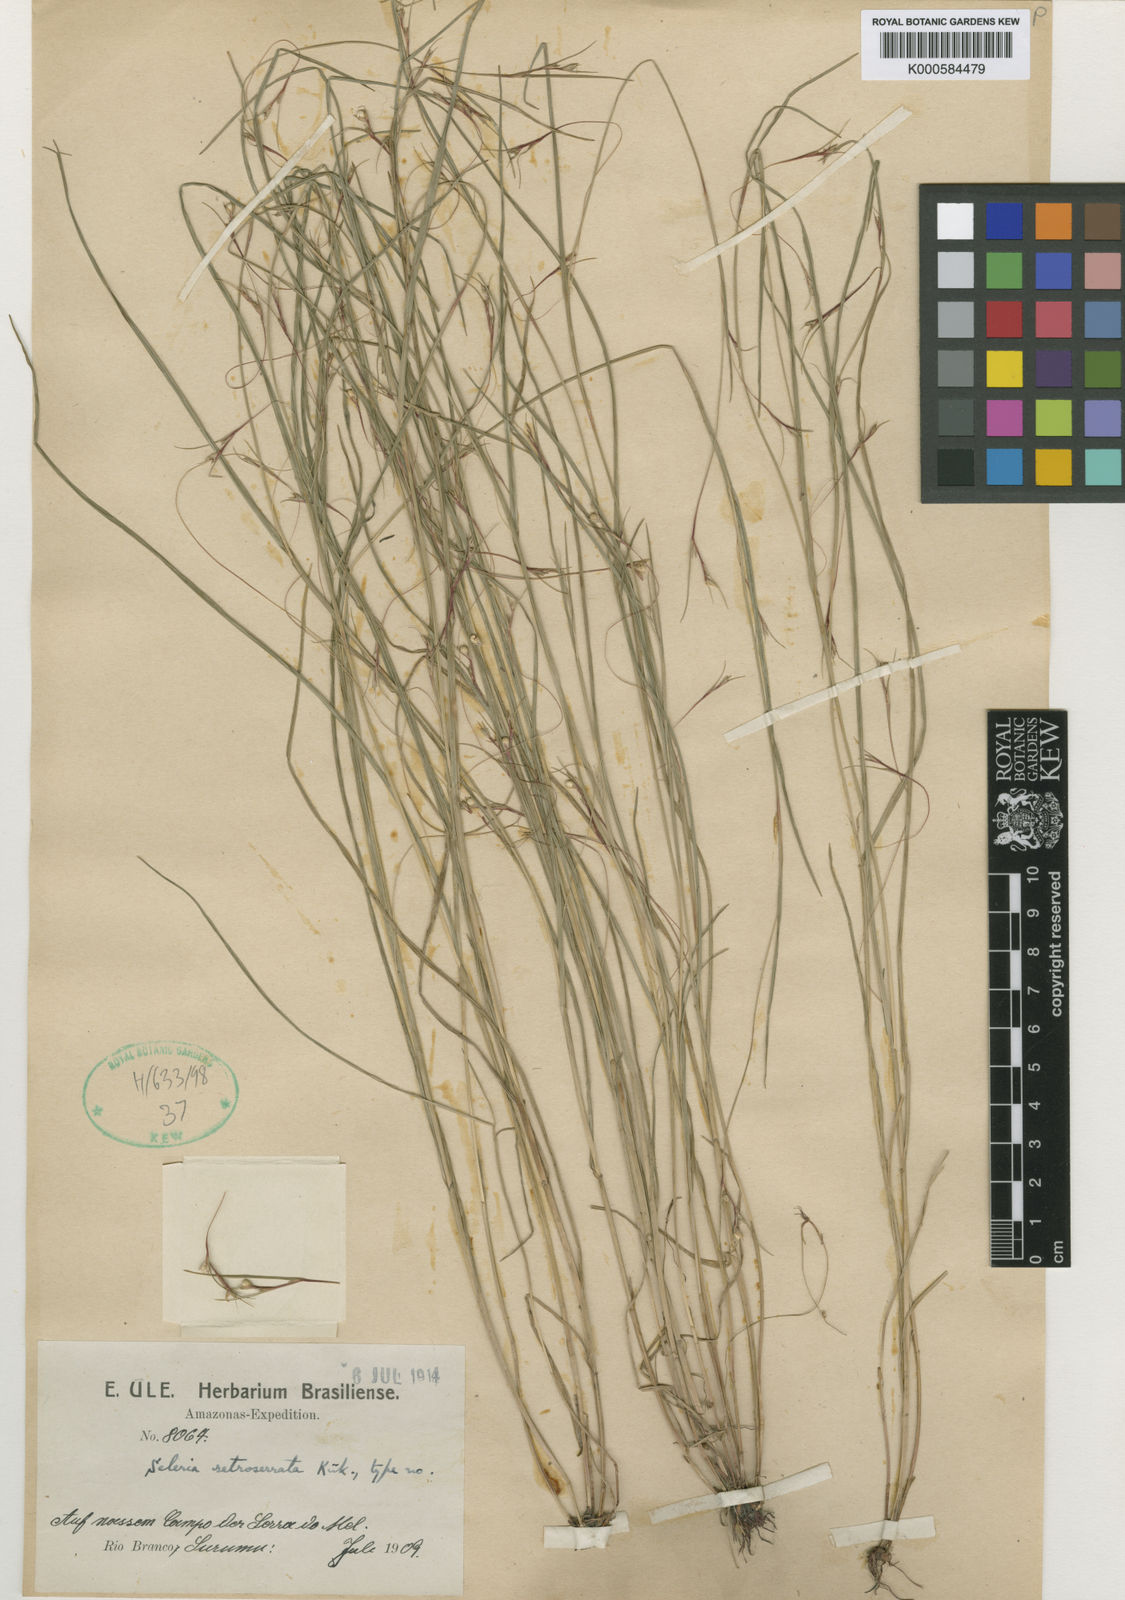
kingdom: Plantae
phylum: Tracheophyta
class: Liliopsida
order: Poales
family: Cyperaceae
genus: Scleria
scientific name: Scleria
